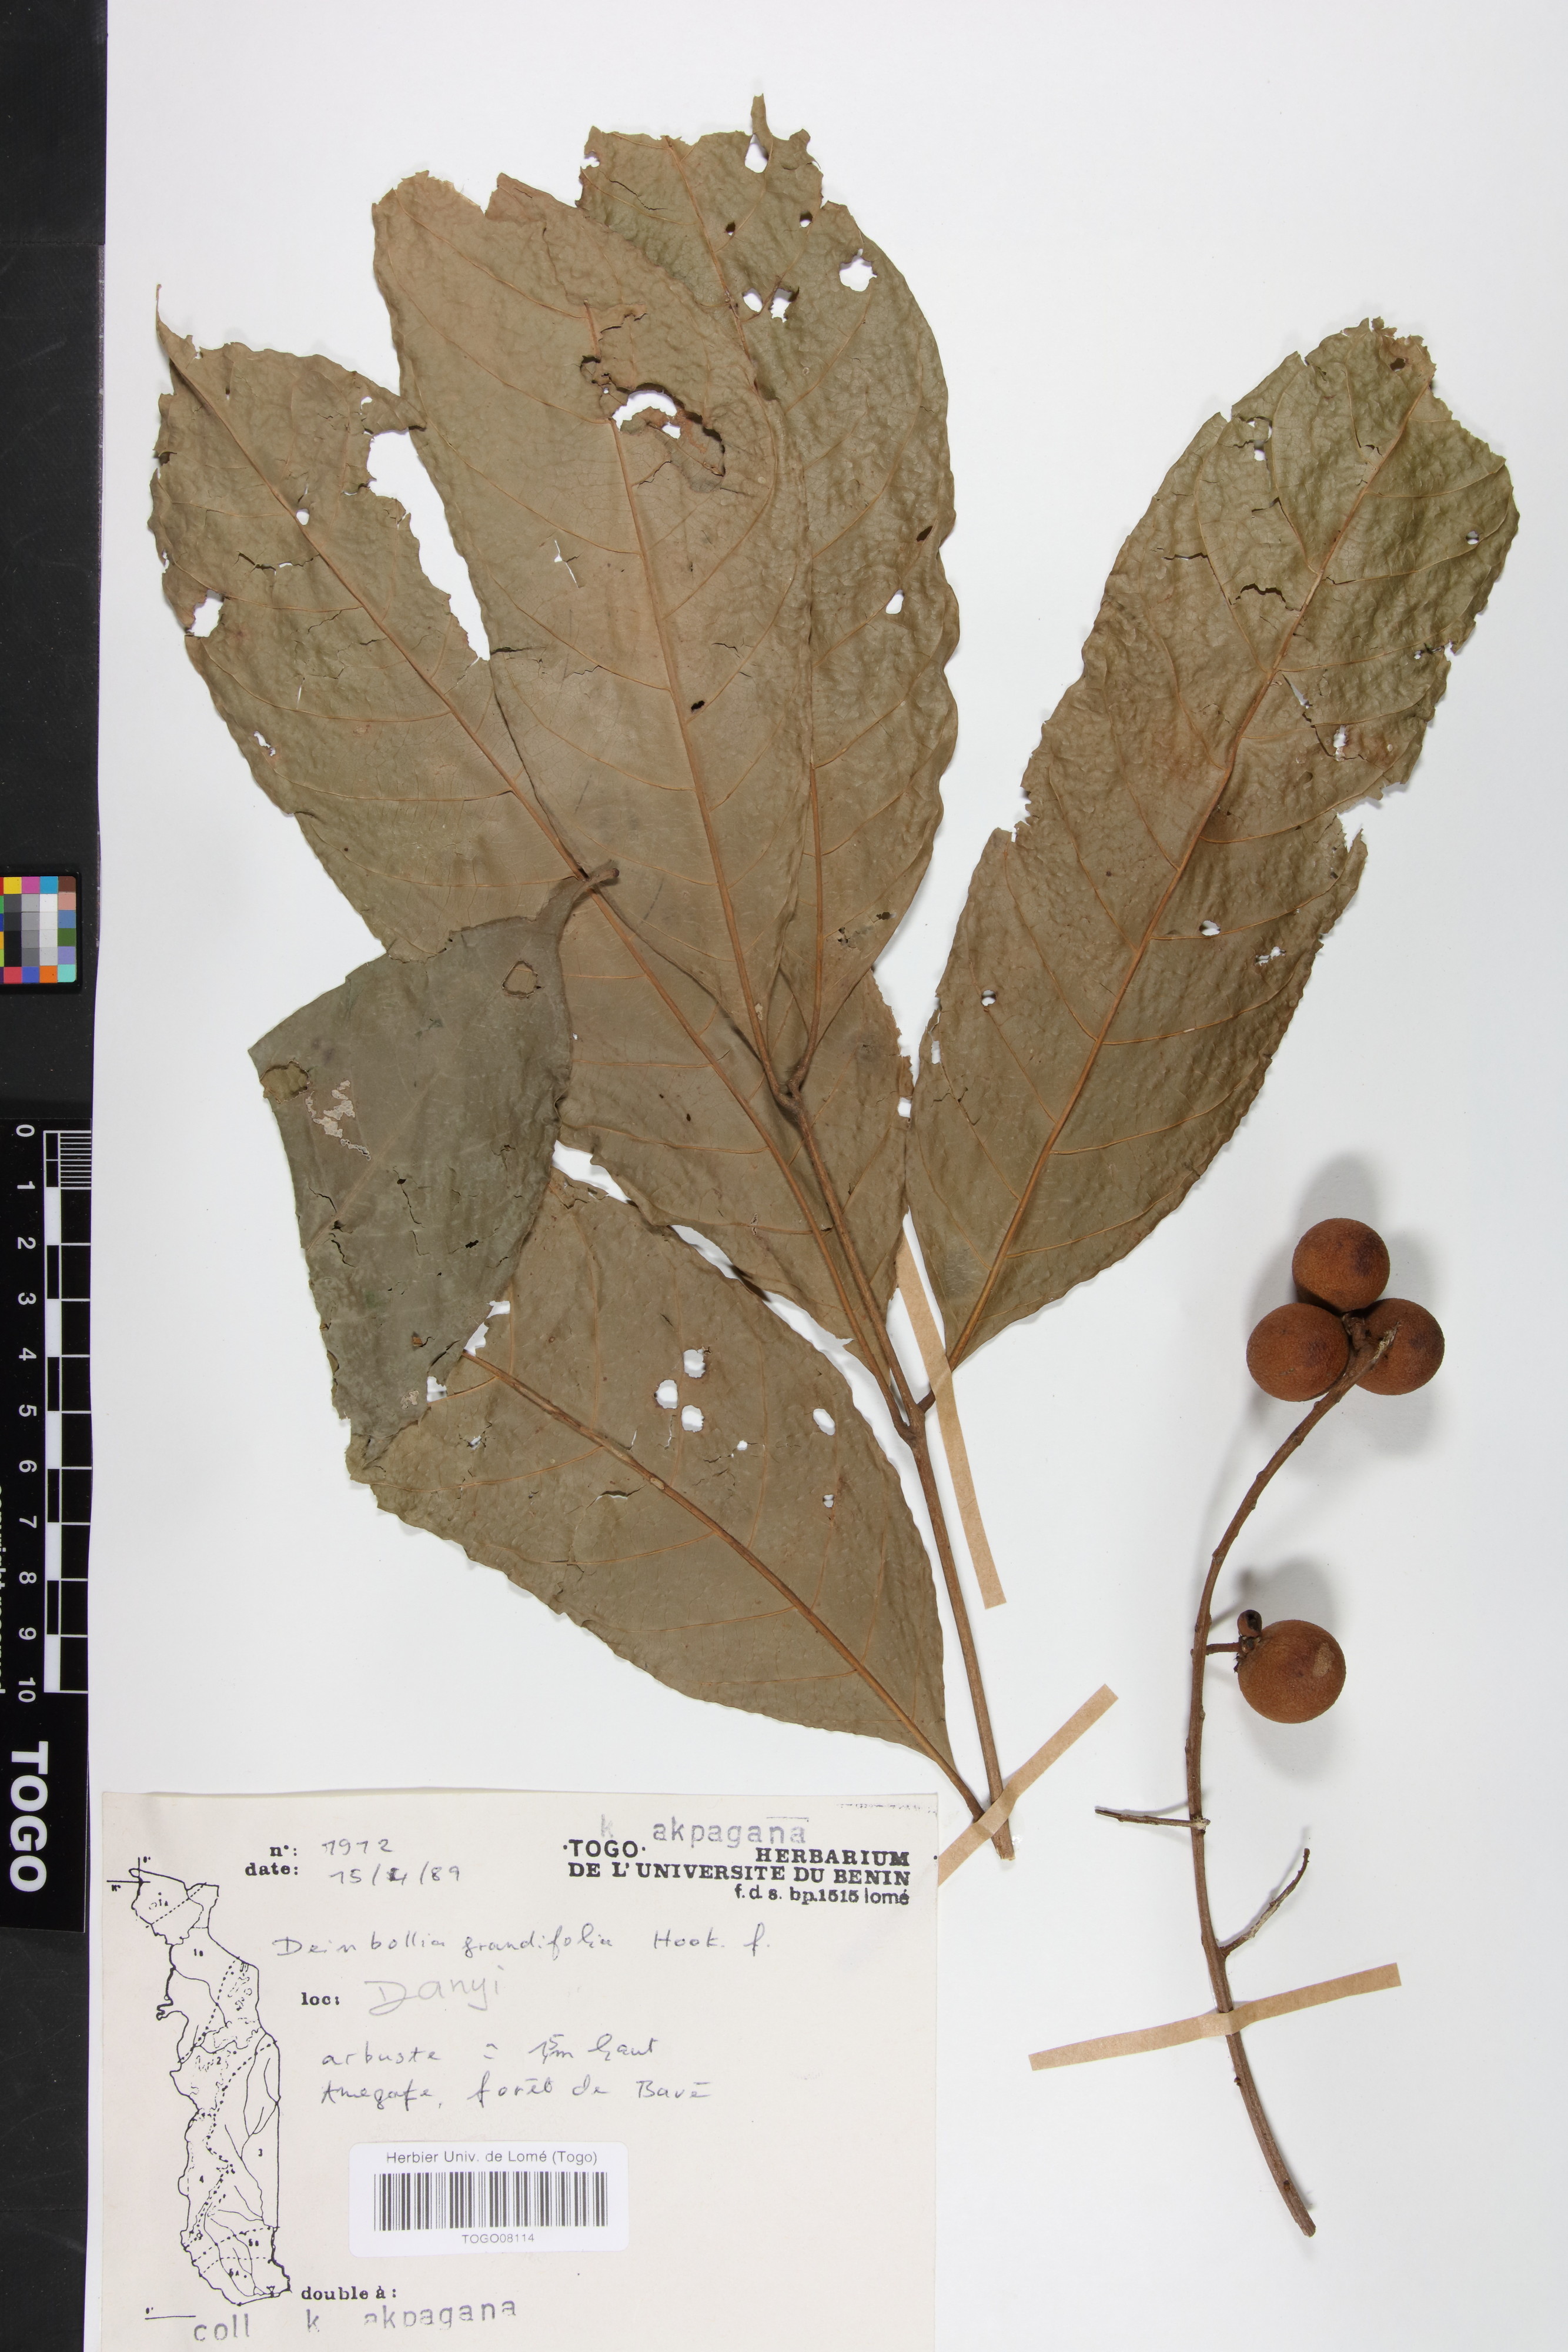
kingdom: Plantae
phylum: Tracheophyta
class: Magnoliopsida
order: Sapindales
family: Sapindaceae
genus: Deinbollia
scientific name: Deinbollia grandifolia
